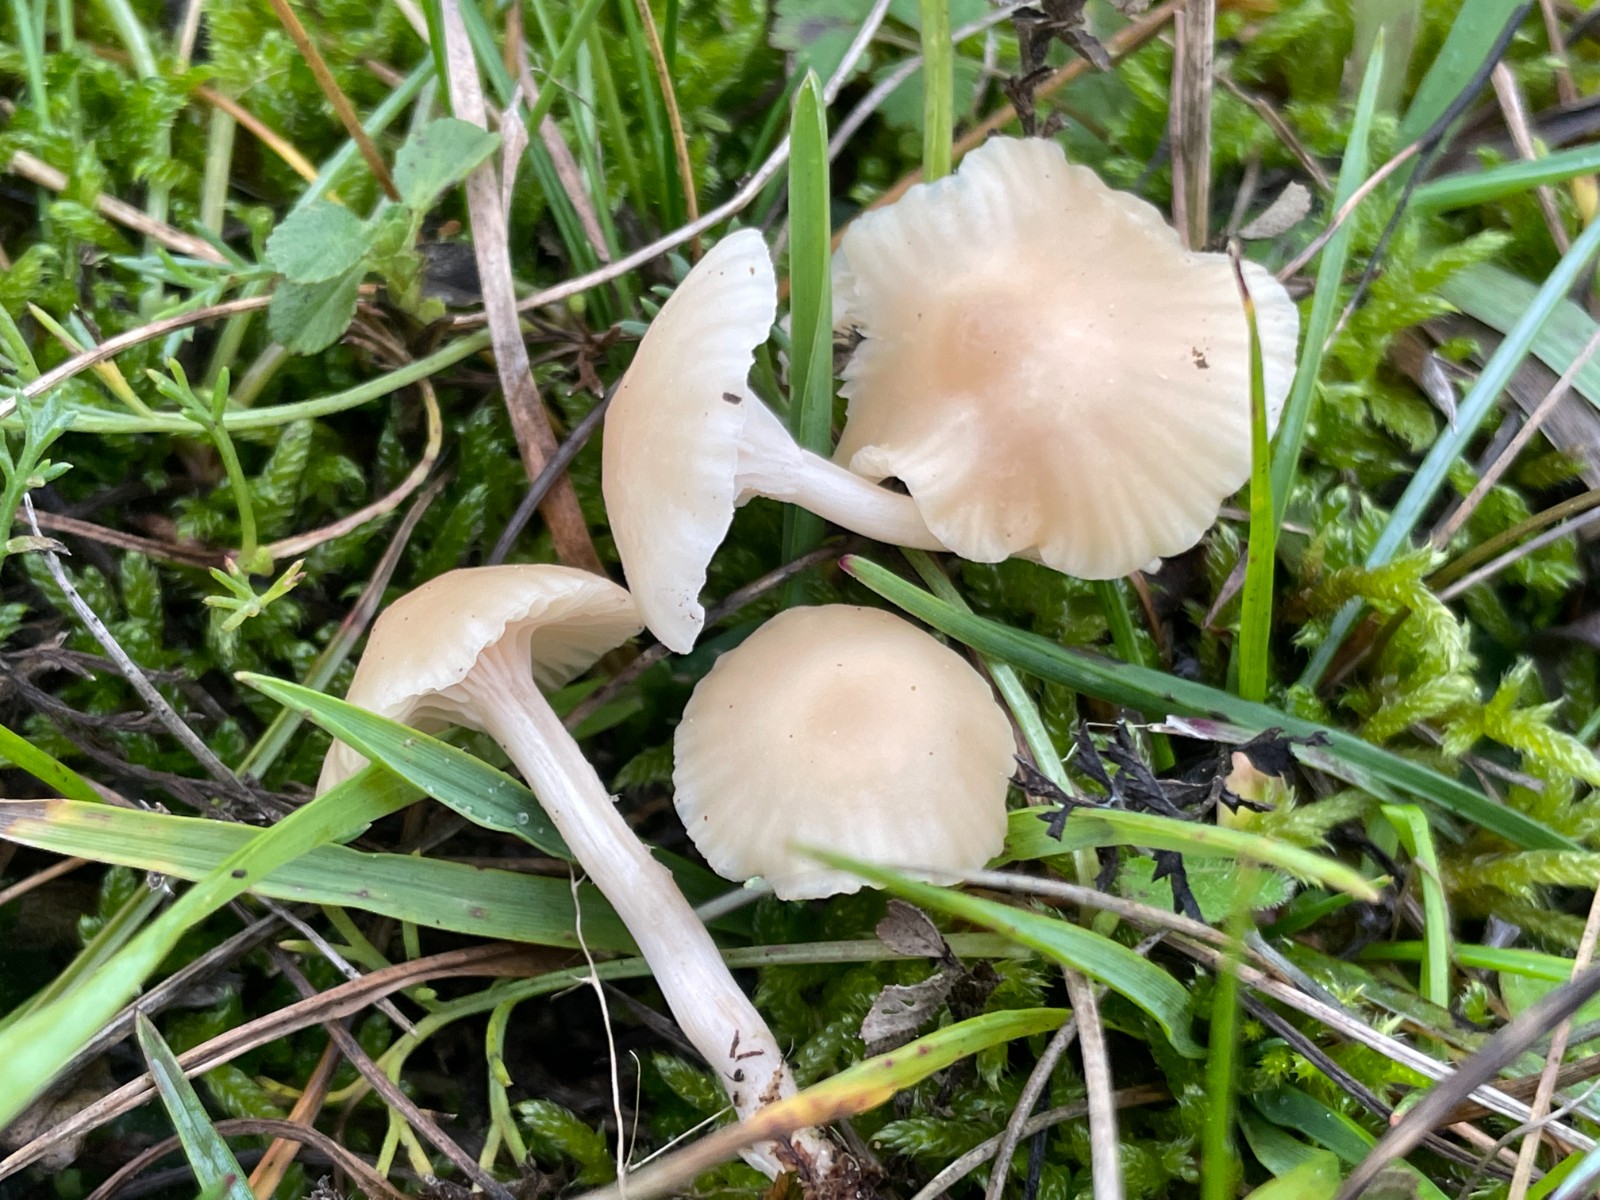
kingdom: Fungi
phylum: Basidiomycota
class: Agaricomycetes
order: Agaricales
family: Hygrophoraceae
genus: Cuphophyllus
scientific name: Cuphophyllus virgineus
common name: isabella-vokshat
